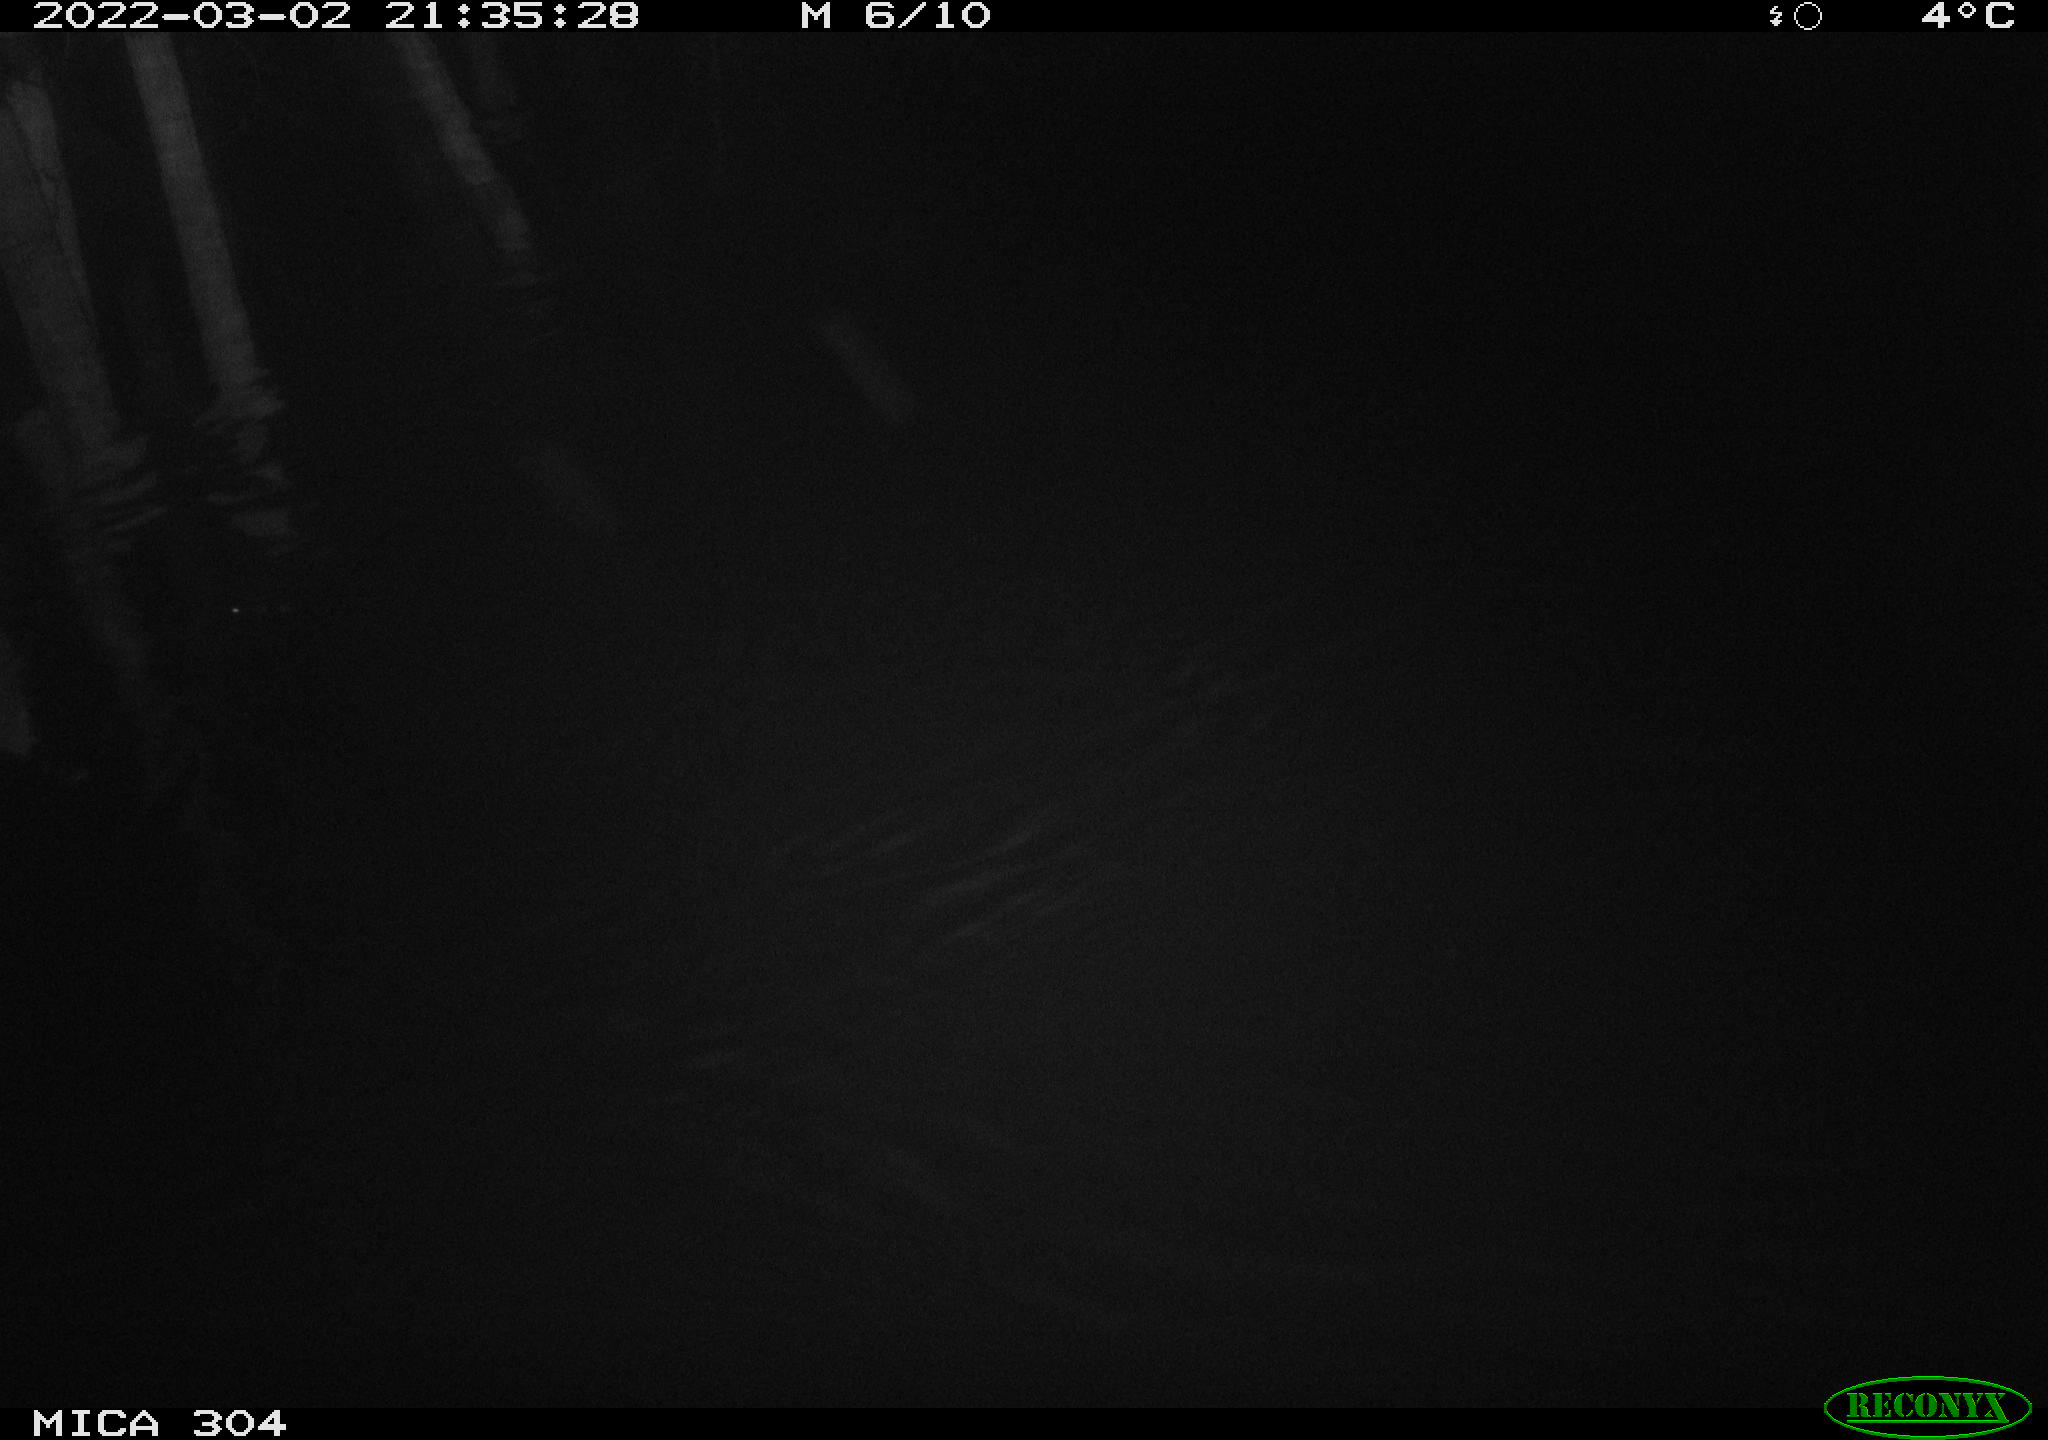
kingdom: Animalia
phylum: Chordata
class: Mammalia
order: Rodentia
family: Muridae
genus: Rattus
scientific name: Rattus norvegicus
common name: Brown rat
